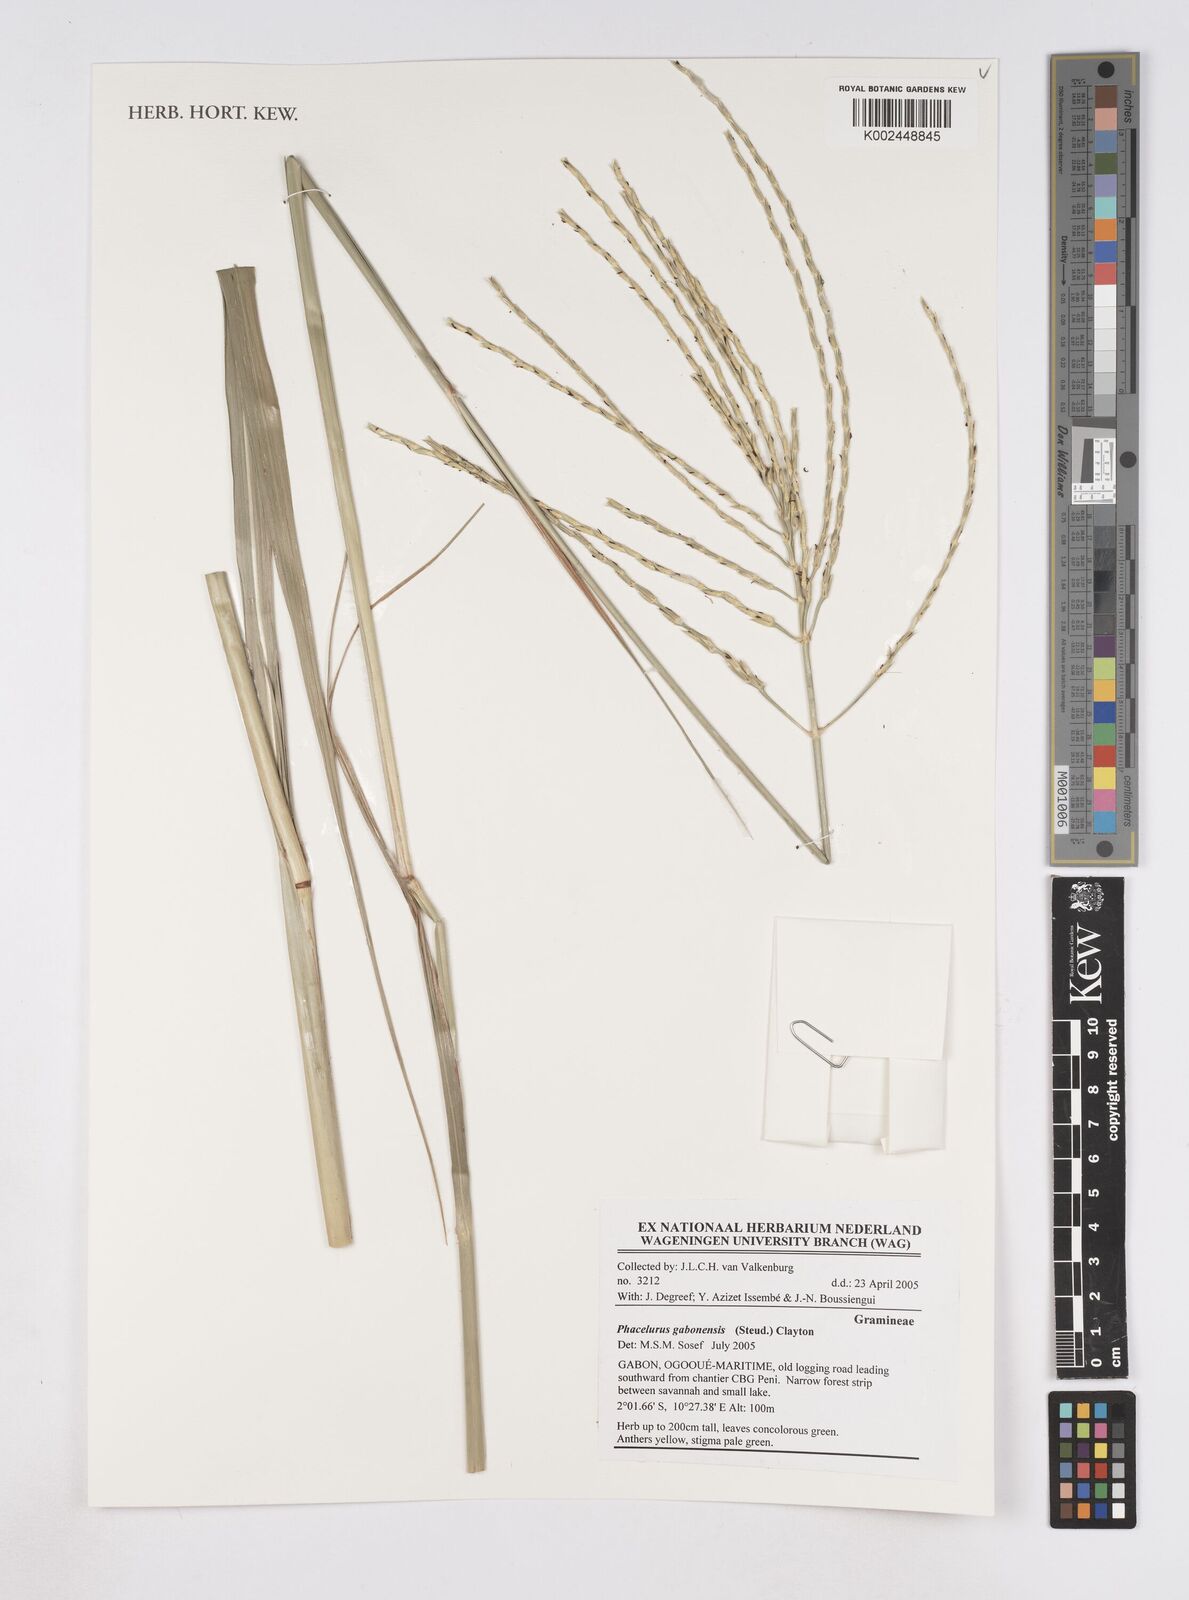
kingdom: Plantae
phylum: Tracheophyta
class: Liliopsida
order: Poales
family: Poaceae
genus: Phacelurus
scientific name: Phacelurus gabonensis
